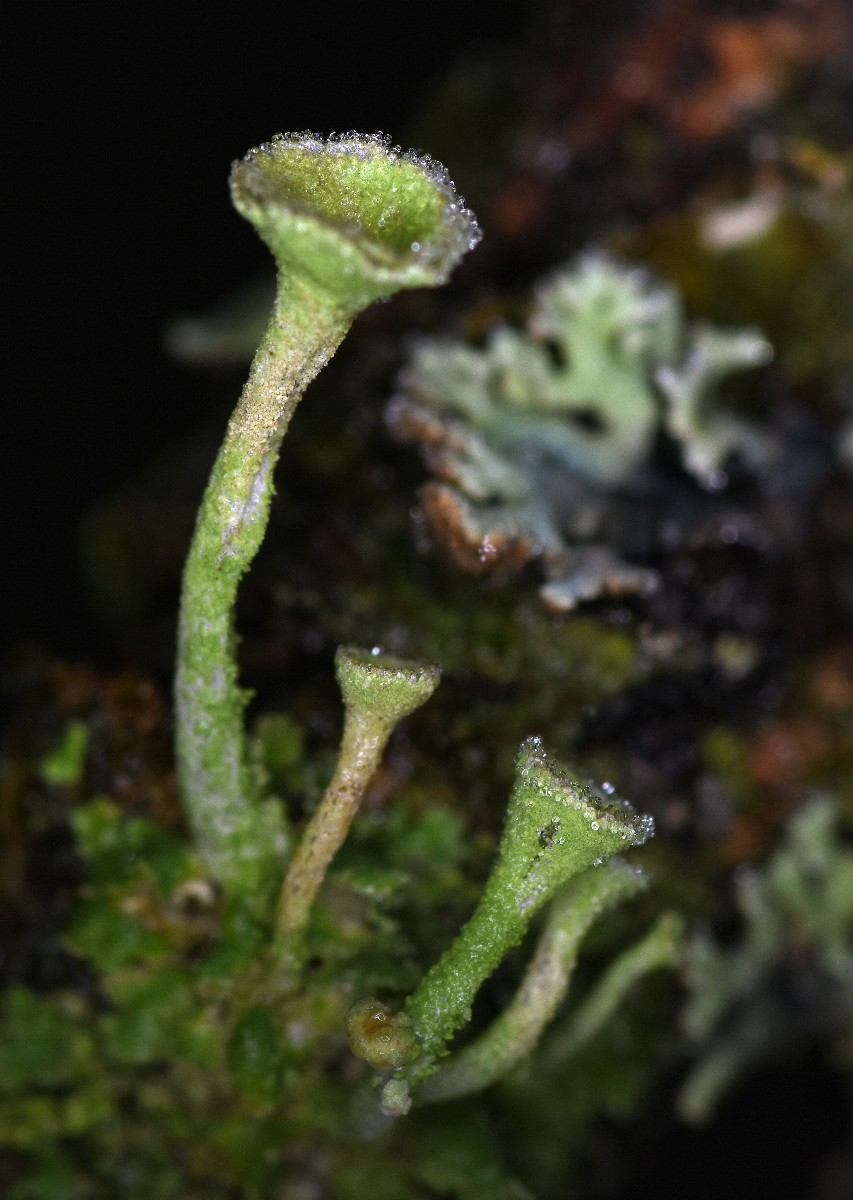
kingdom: Fungi
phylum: Ascomycota
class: Lecanoromycetes
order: Lecanorales
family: Cladoniaceae
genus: Cladonia
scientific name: Cladonia
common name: brungrøn bægerlav
